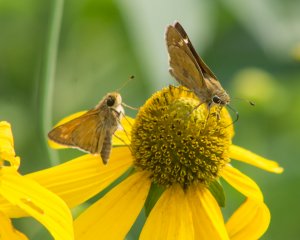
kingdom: Animalia
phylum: Arthropoda
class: Insecta
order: Lepidoptera
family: Hesperiidae
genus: Atalopedes
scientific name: Atalopedes campestris
